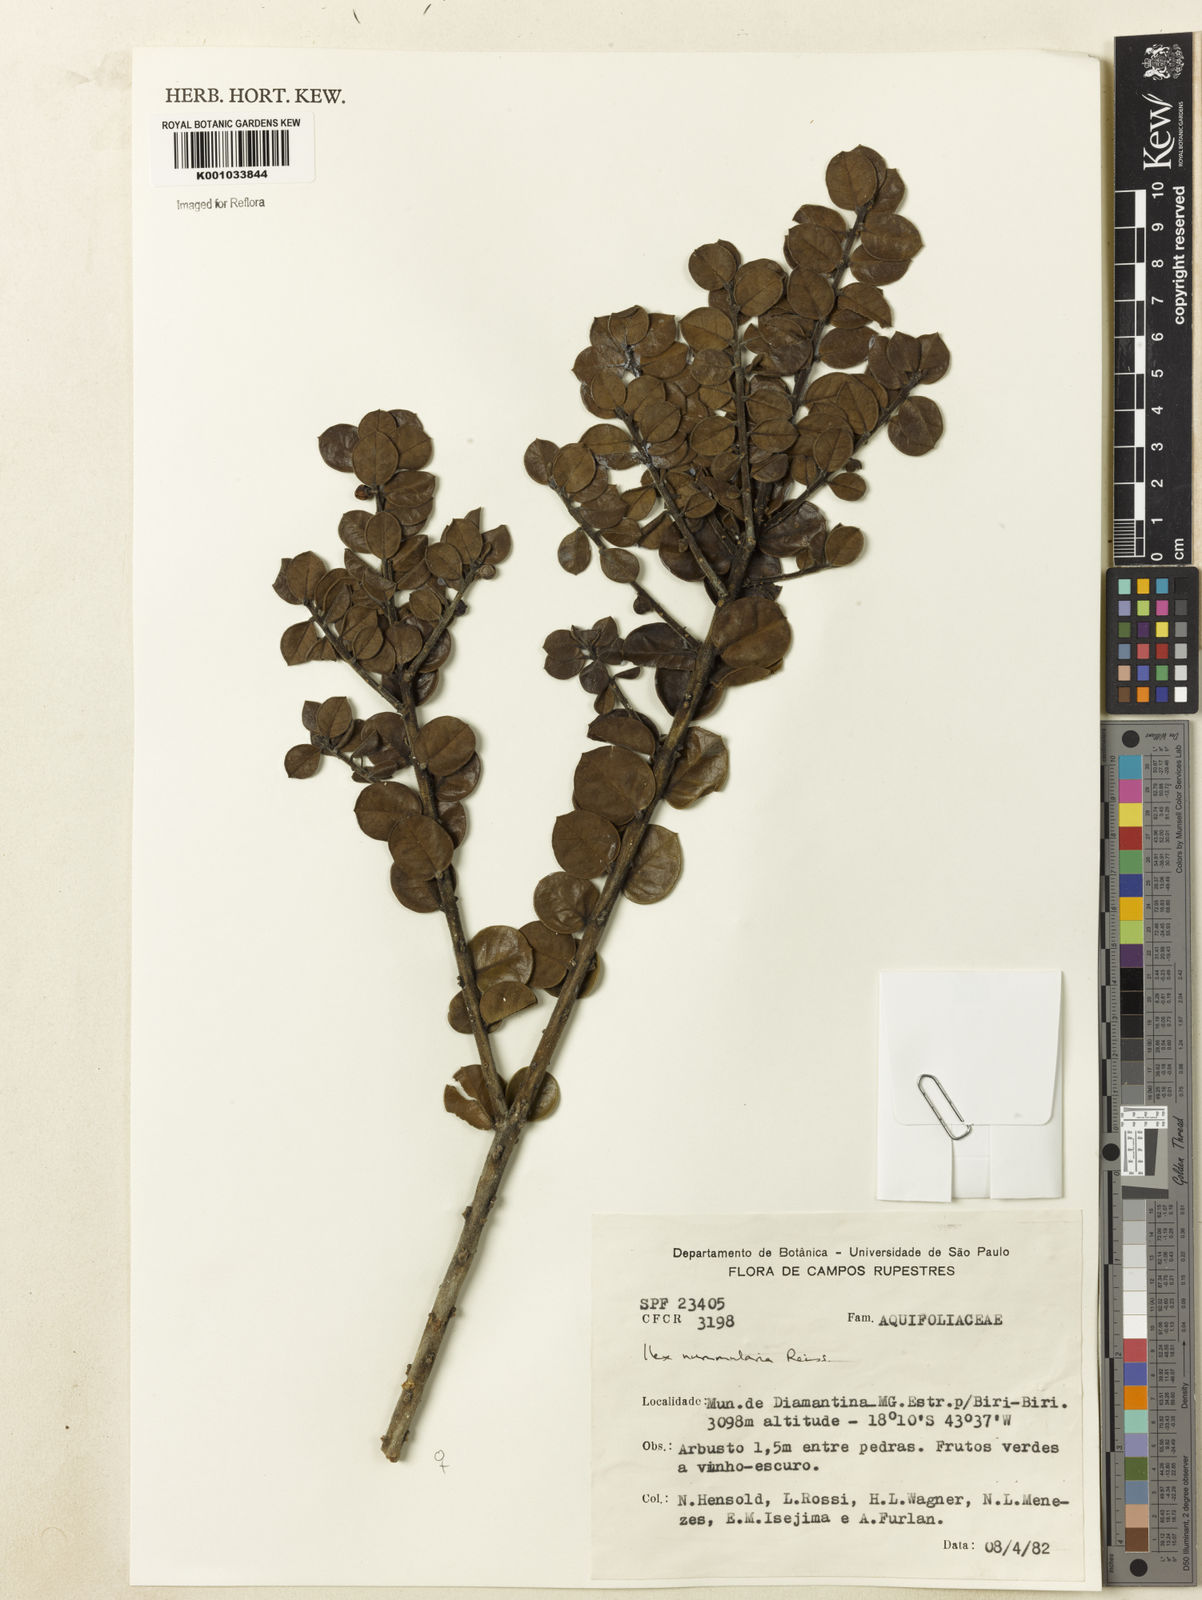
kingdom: Plantae
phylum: Tracheophyta
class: Magnoliopsida
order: Aquifoliales
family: Aquifoliaceae
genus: Ilex
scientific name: Ilex nummularia
